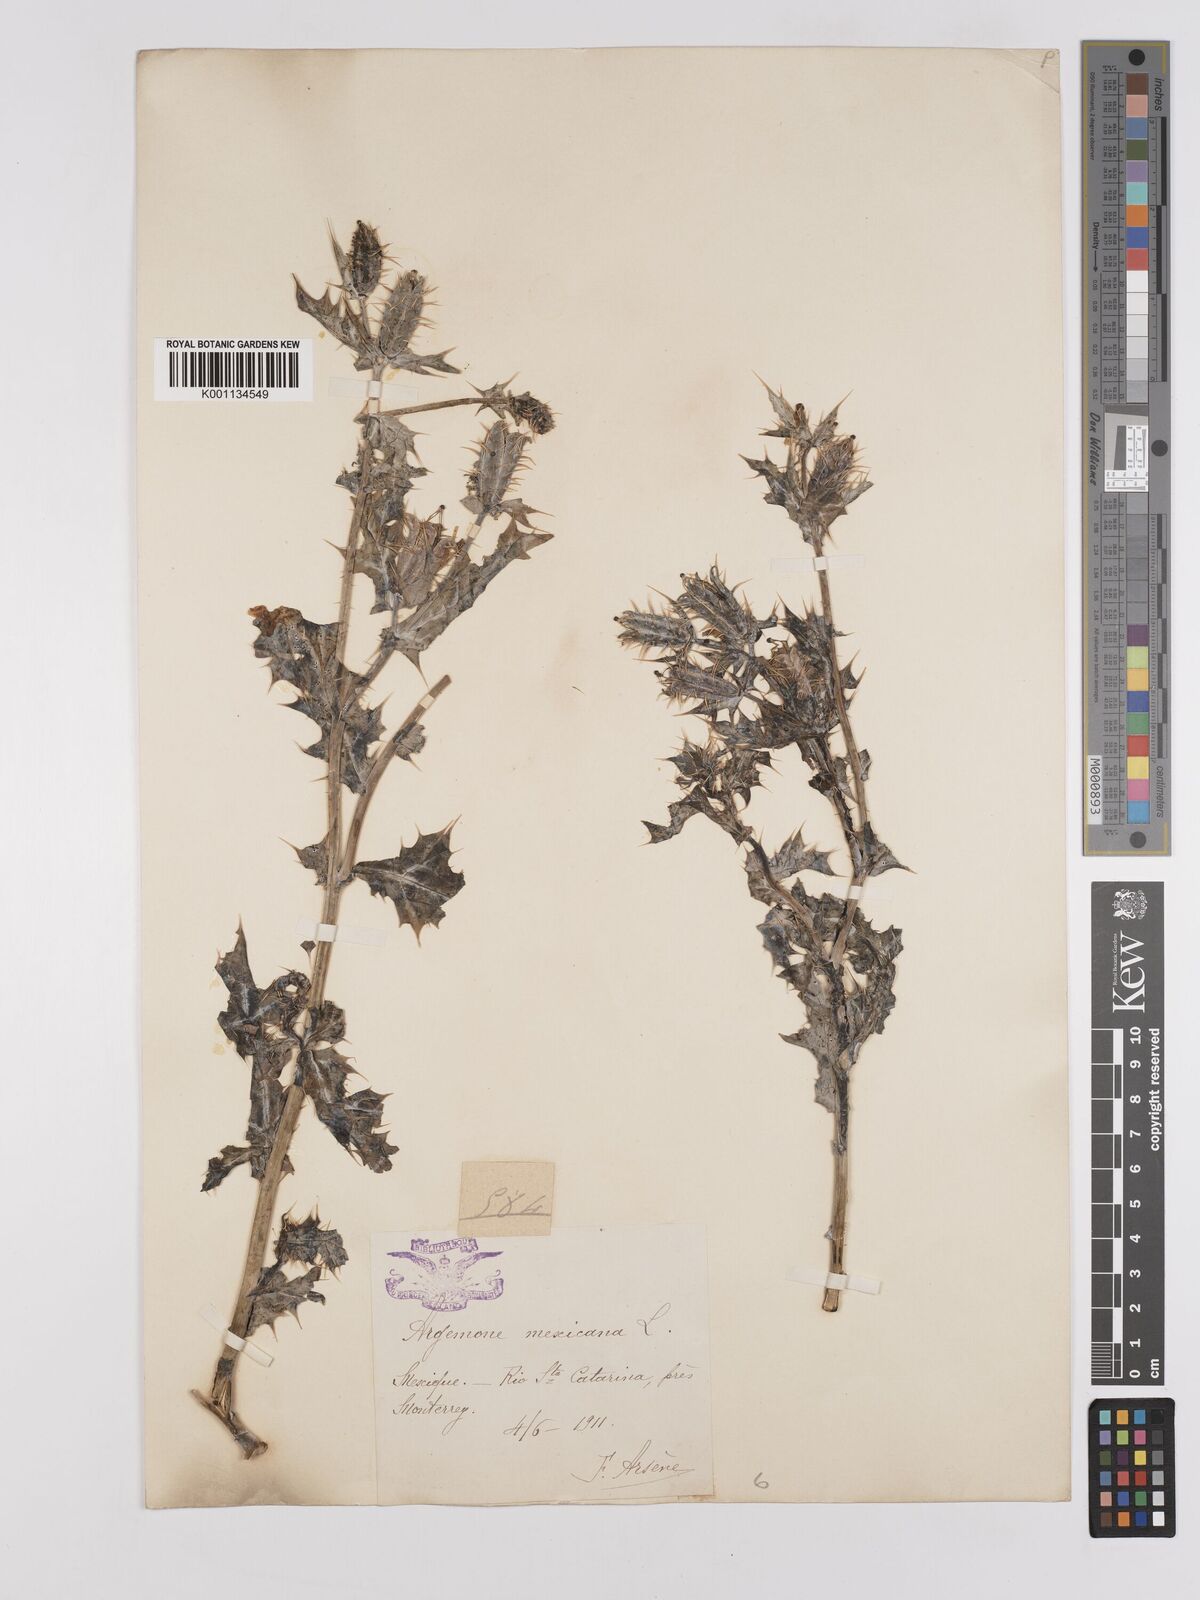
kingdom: Plantae
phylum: Tracheophyta
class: Magnoliopsida
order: Ranunculales
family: Papaveraceae
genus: Argemone
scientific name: Argemone mexicana
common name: Mexican poppy
